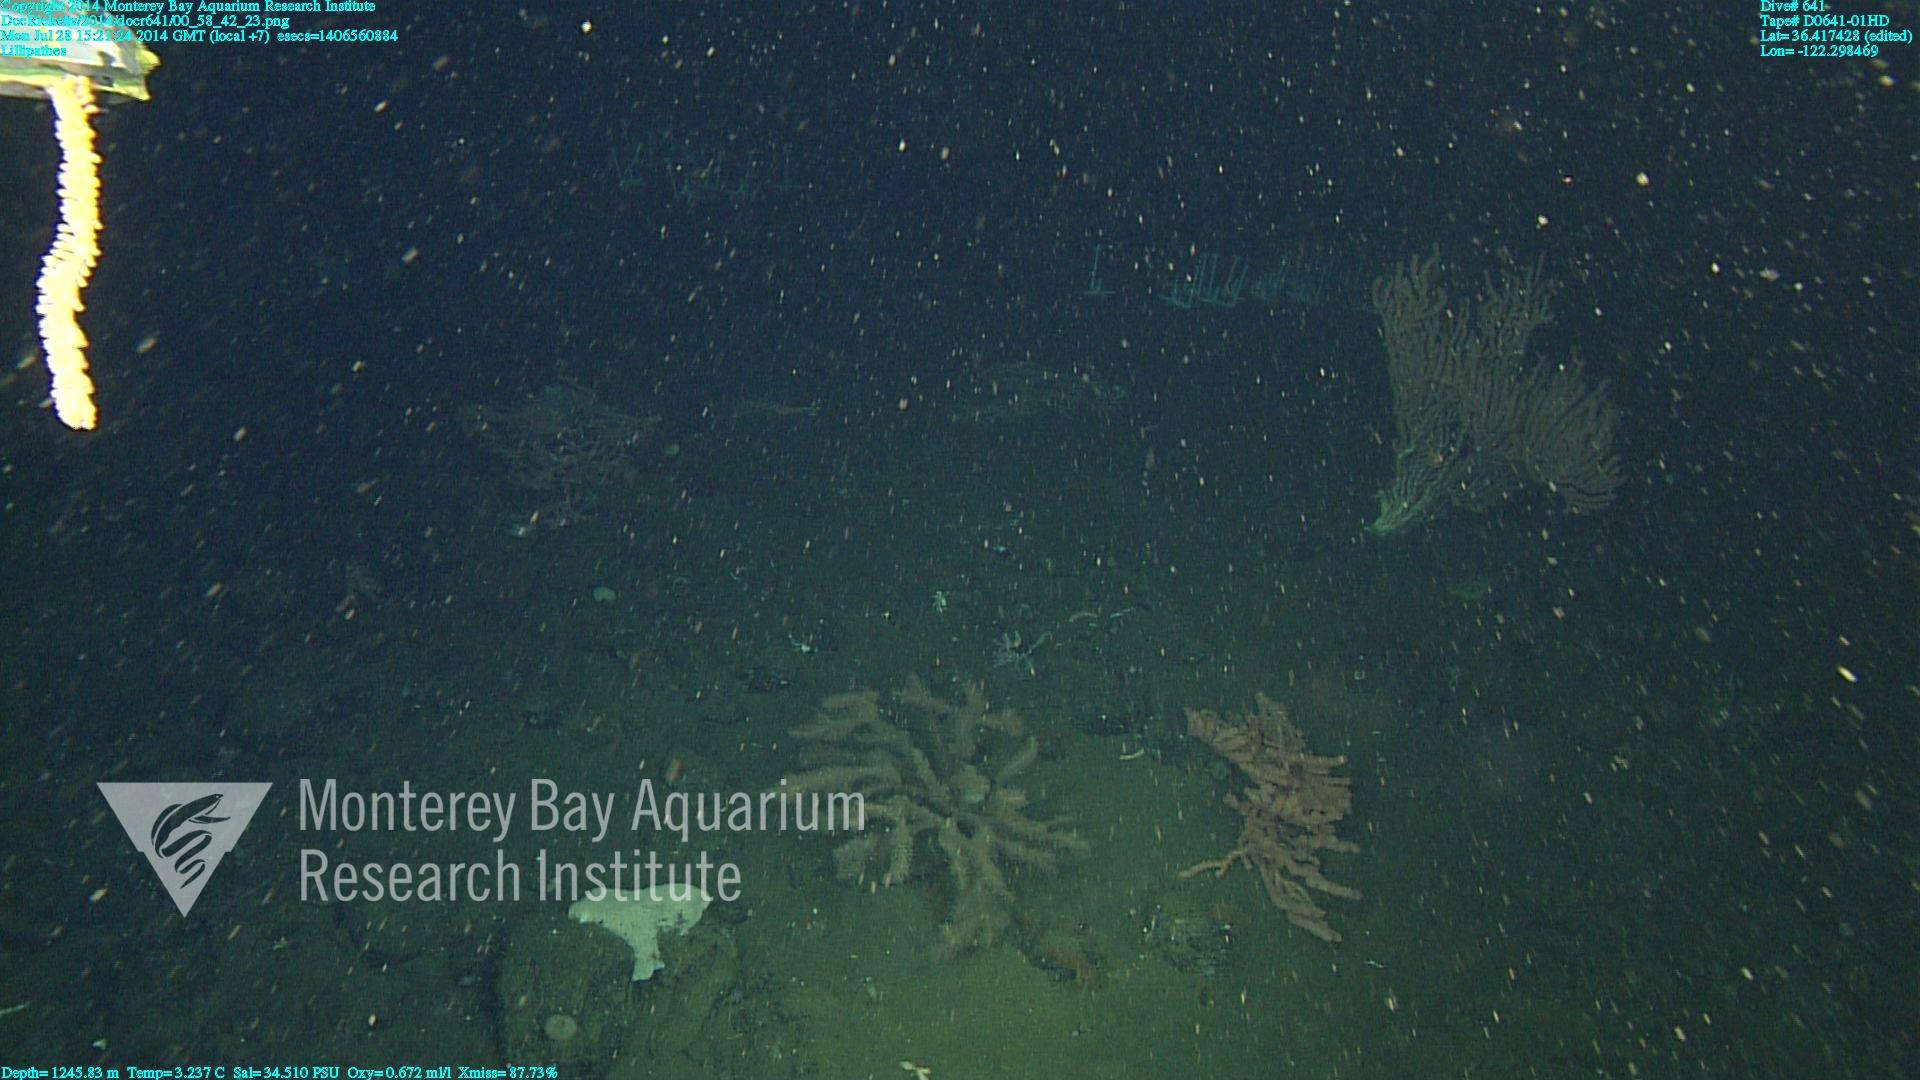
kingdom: Animalia
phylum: Cnidaria
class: Anthozoa
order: Antipatharia
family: Schizopathidae
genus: Lillipathes
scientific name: Lillipathes
